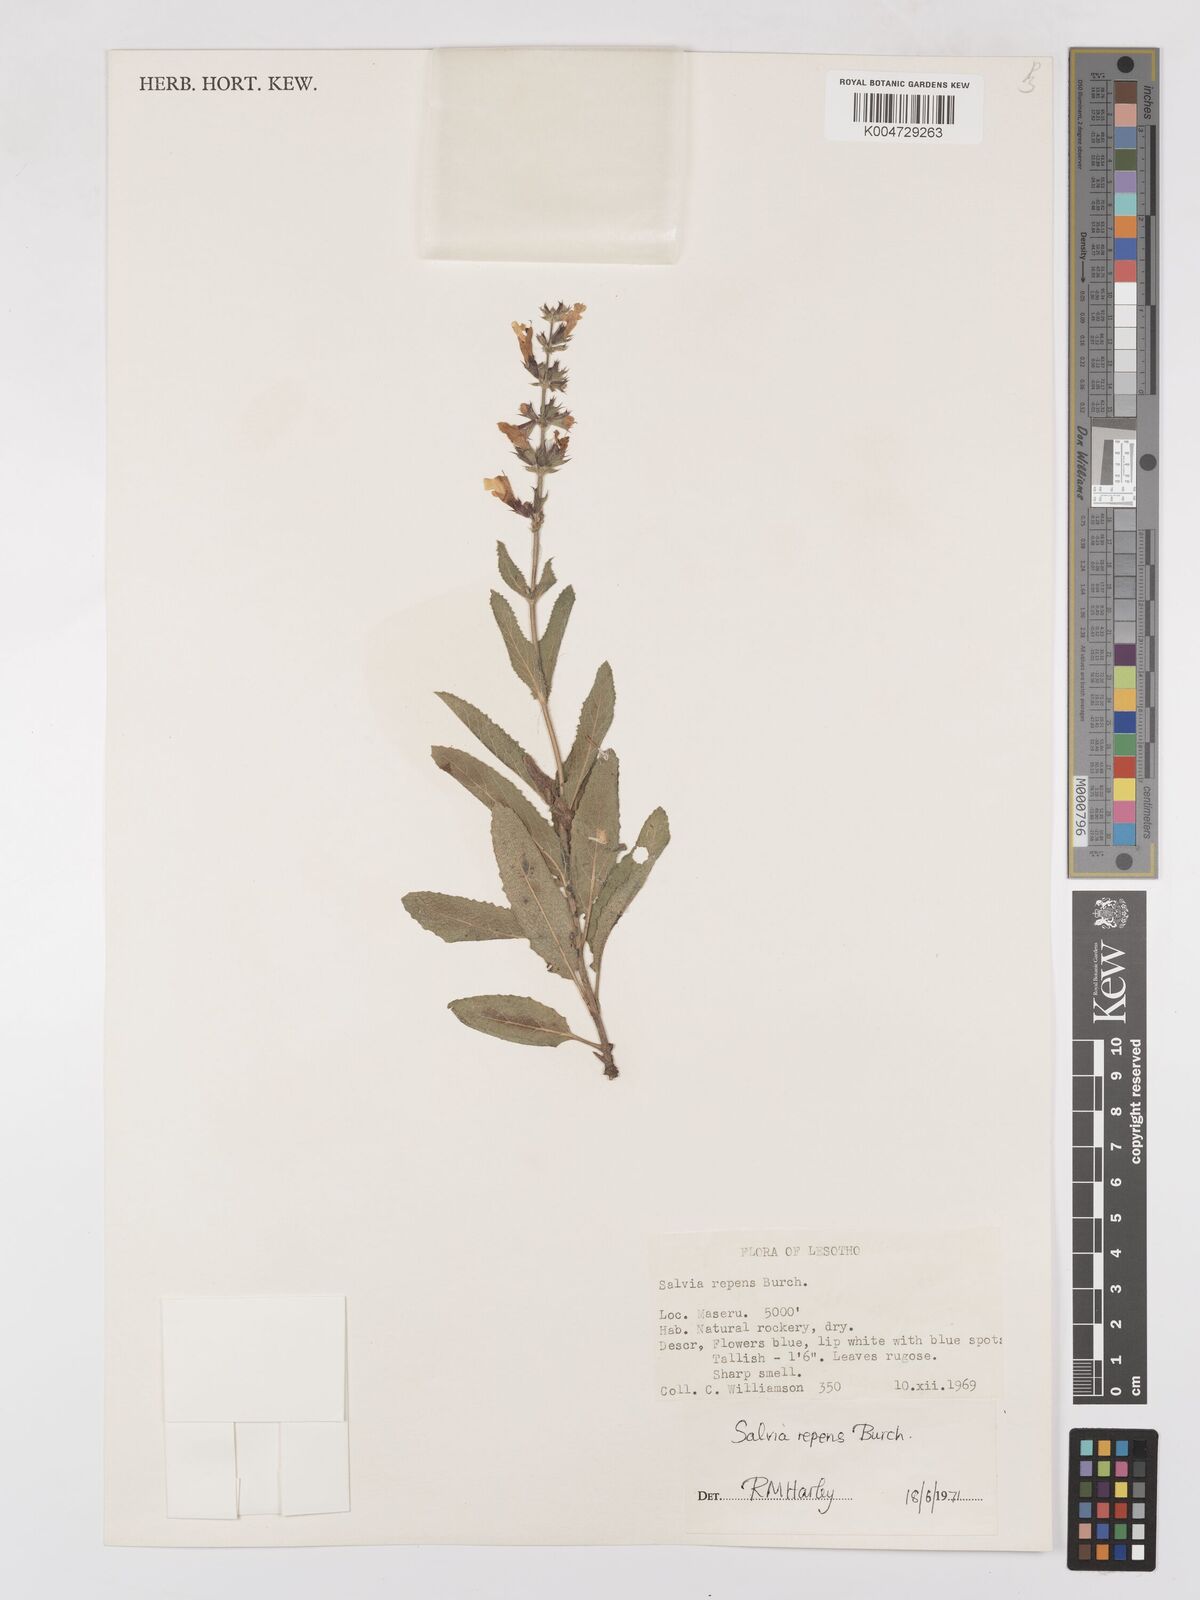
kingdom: Plantae
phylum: Tracheophyta
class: Magnoliopsida
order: Lamiales
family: Lamiaceae
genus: Salvia
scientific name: Salvia repens
